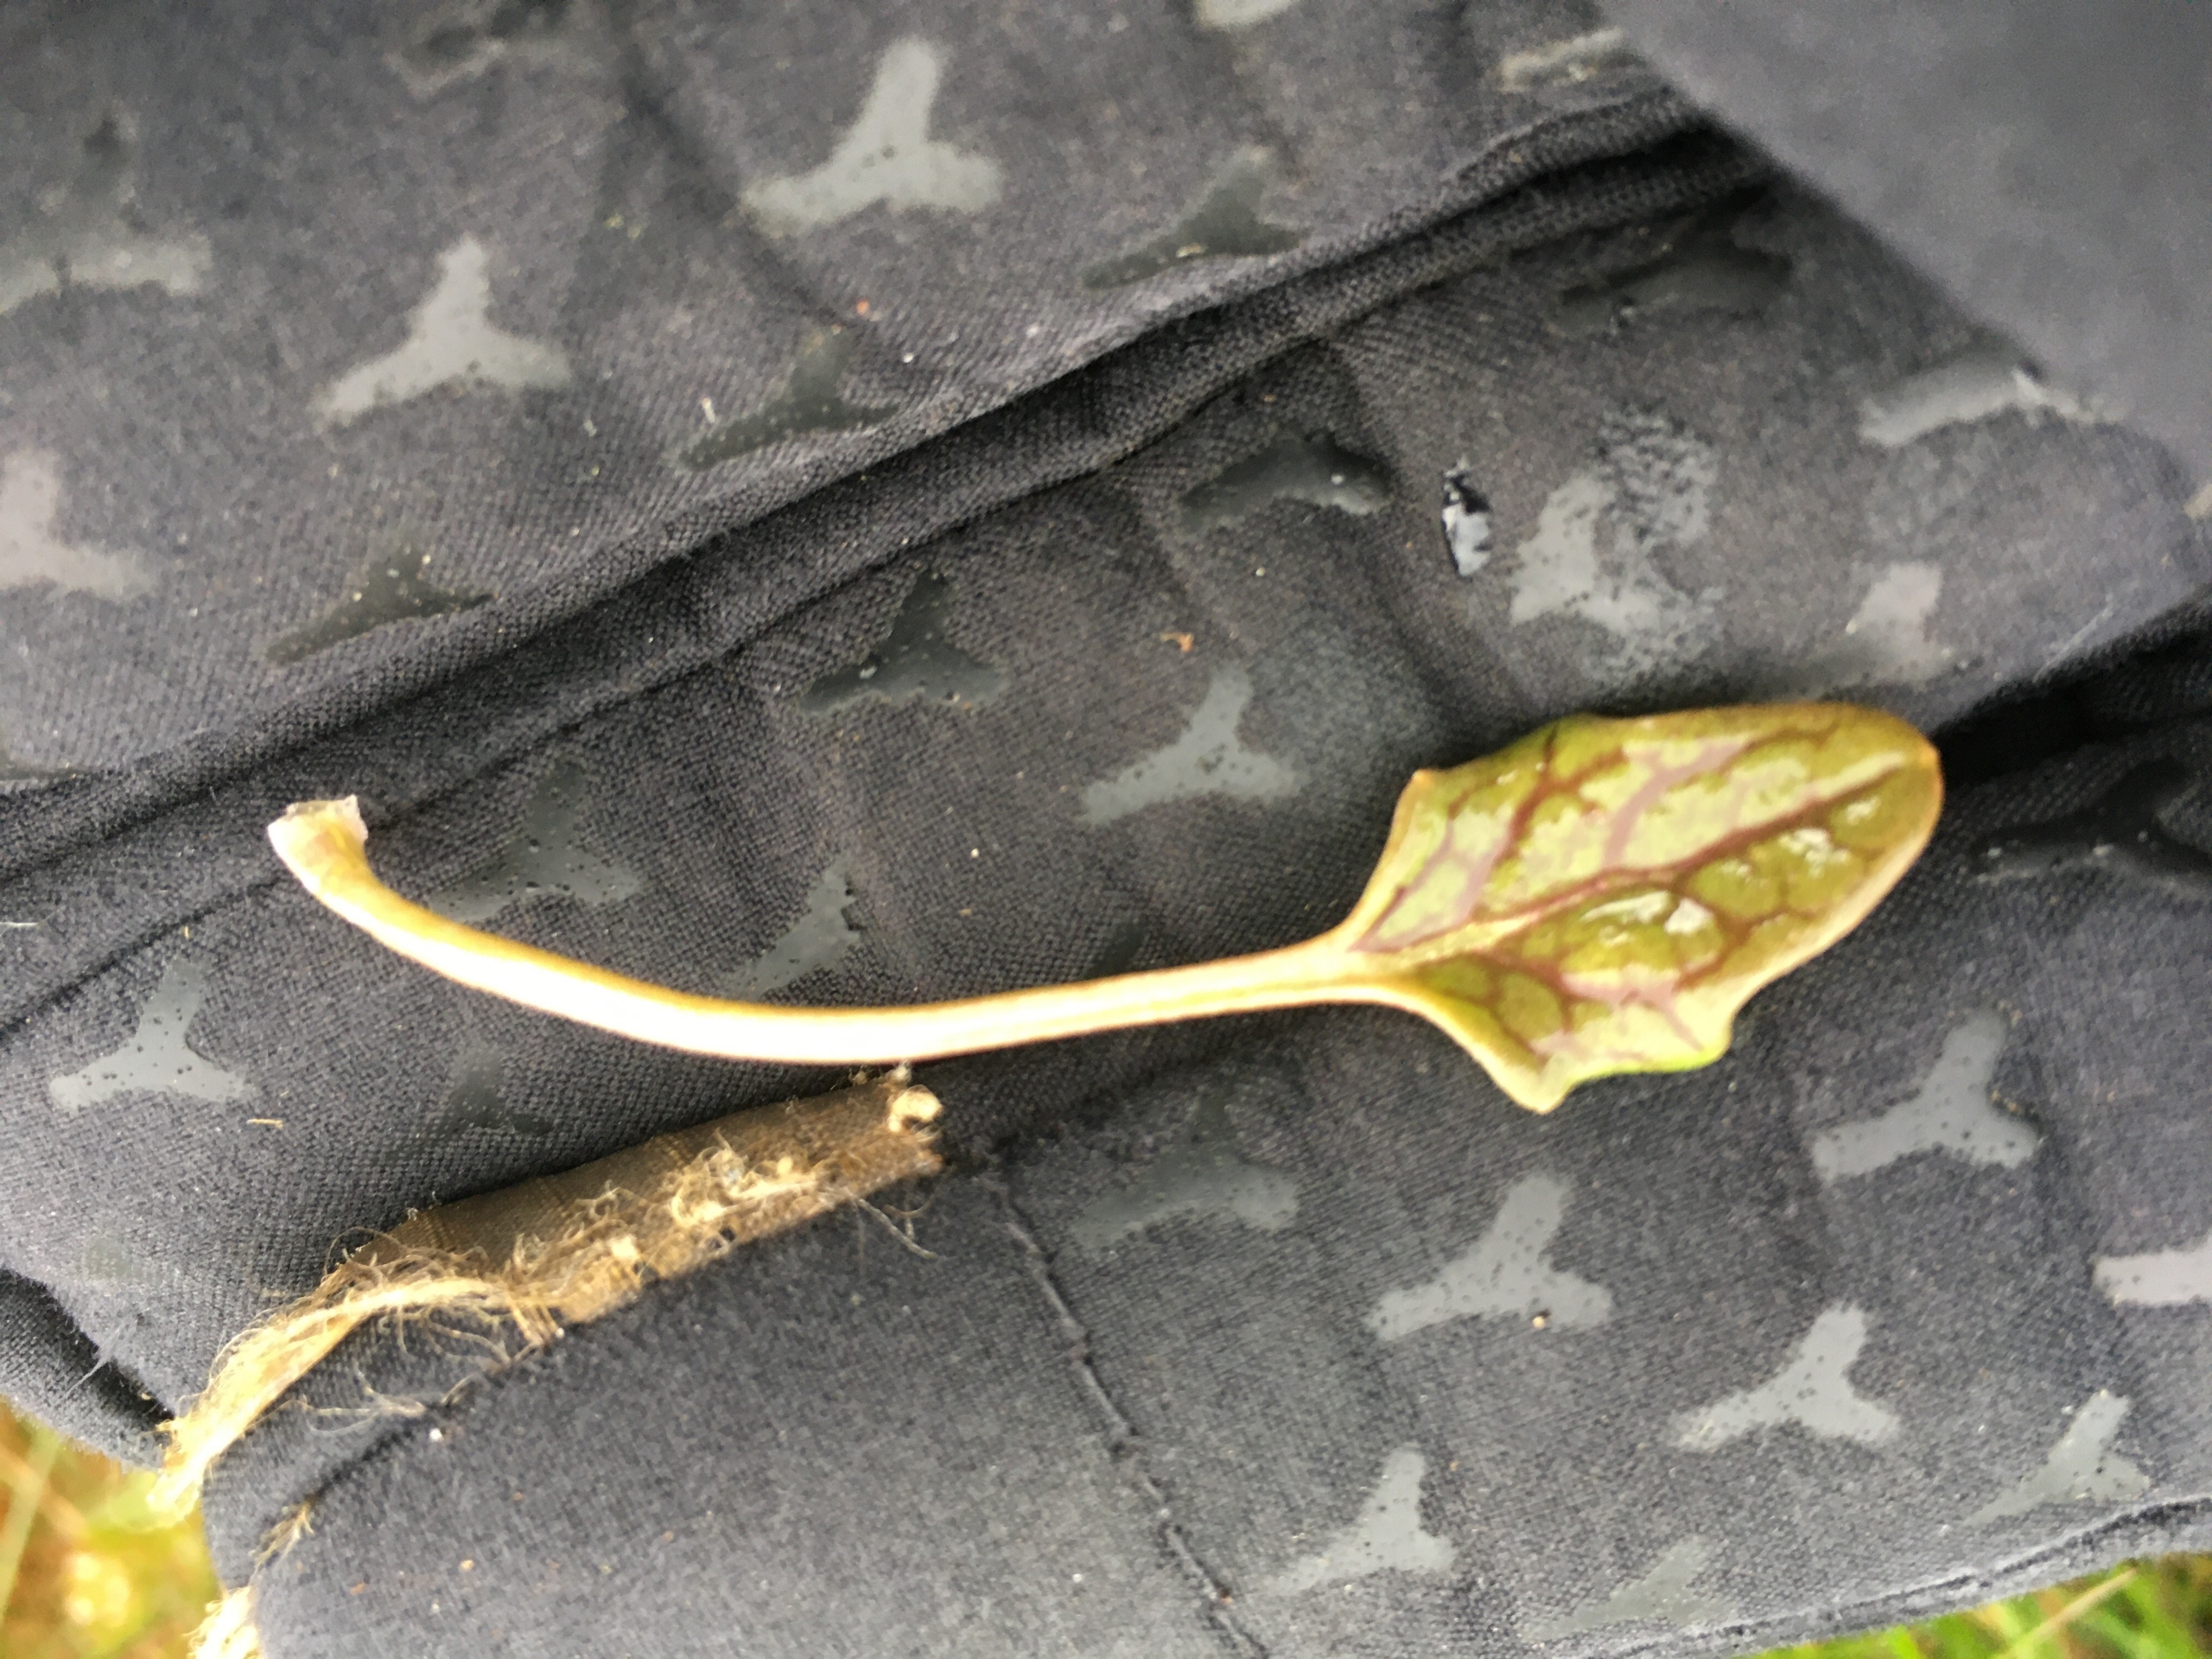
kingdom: Plantae
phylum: Tracheophyta
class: Magnoliopsida
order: Brassicales
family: Brassicaceae
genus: Cochlearia
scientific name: Cochlearia anglica
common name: Engelsk kokleare
